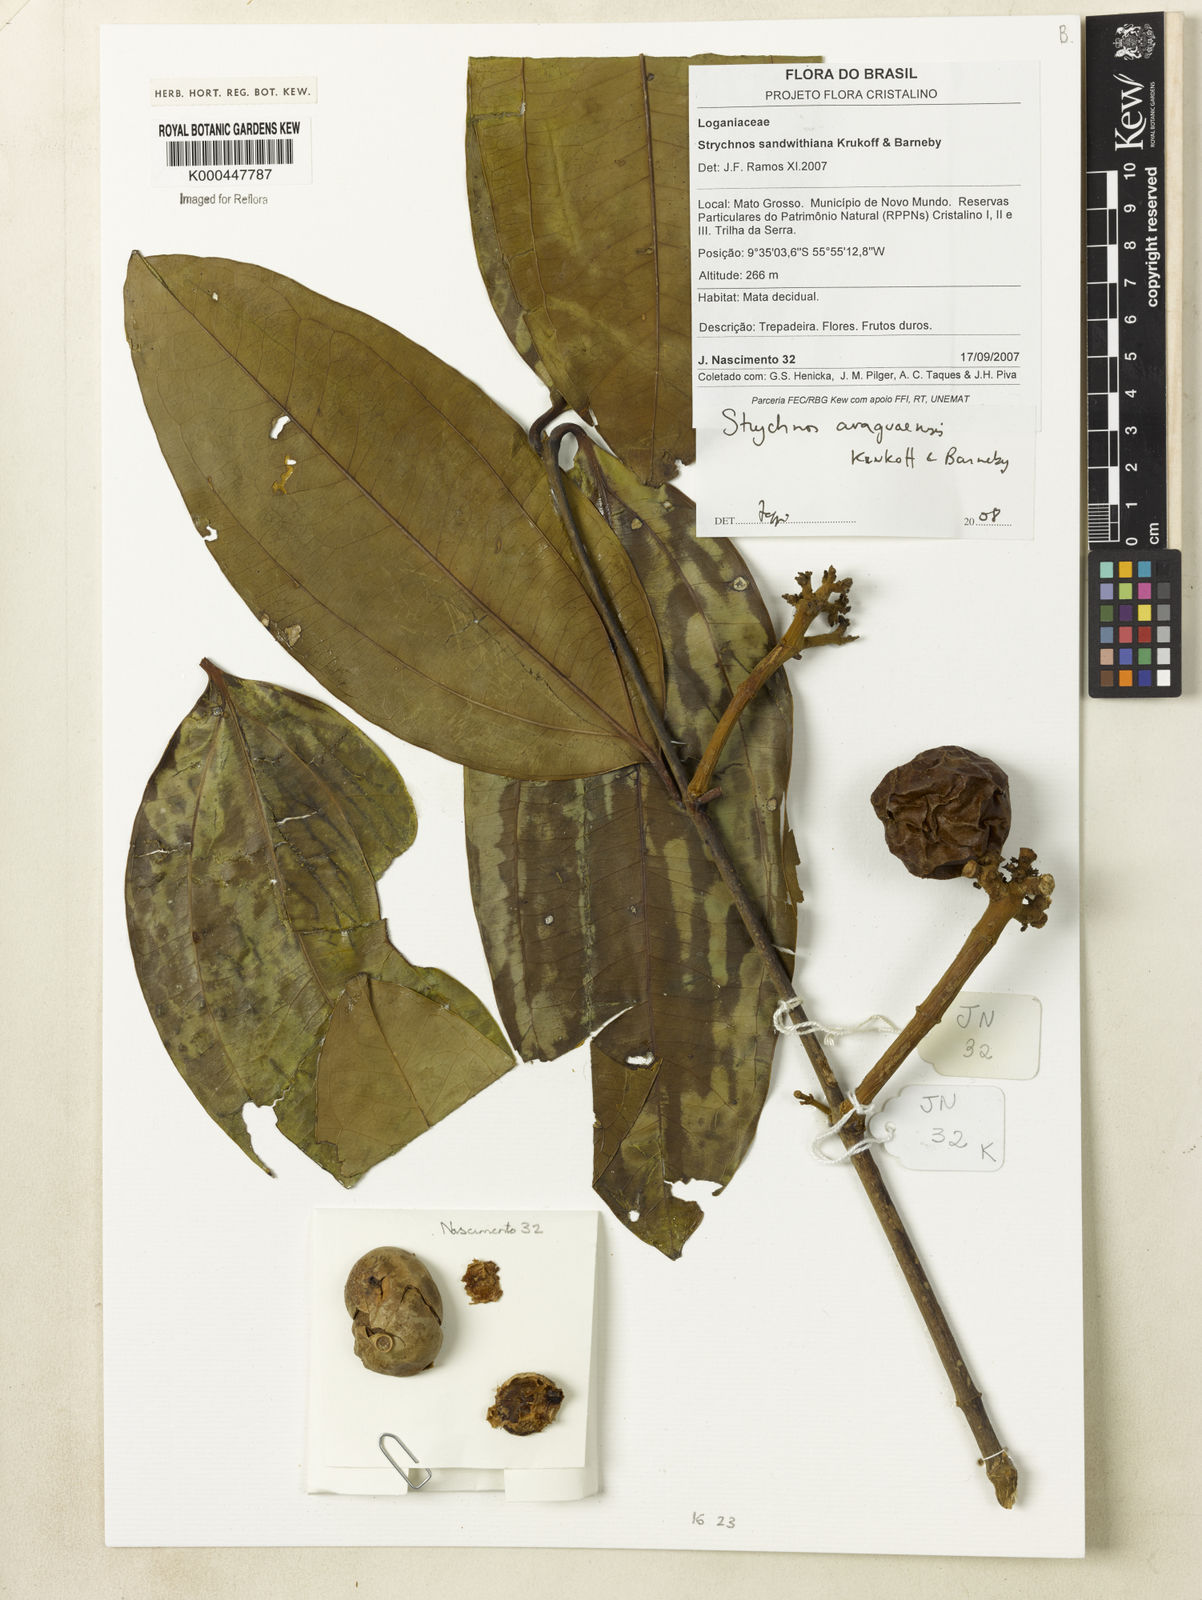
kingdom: Plantae
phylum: Tracheophyta
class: Magnoliopsida
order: Gentianales
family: Loganiaceae
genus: Strychnos
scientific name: Strychnos araguaensis
